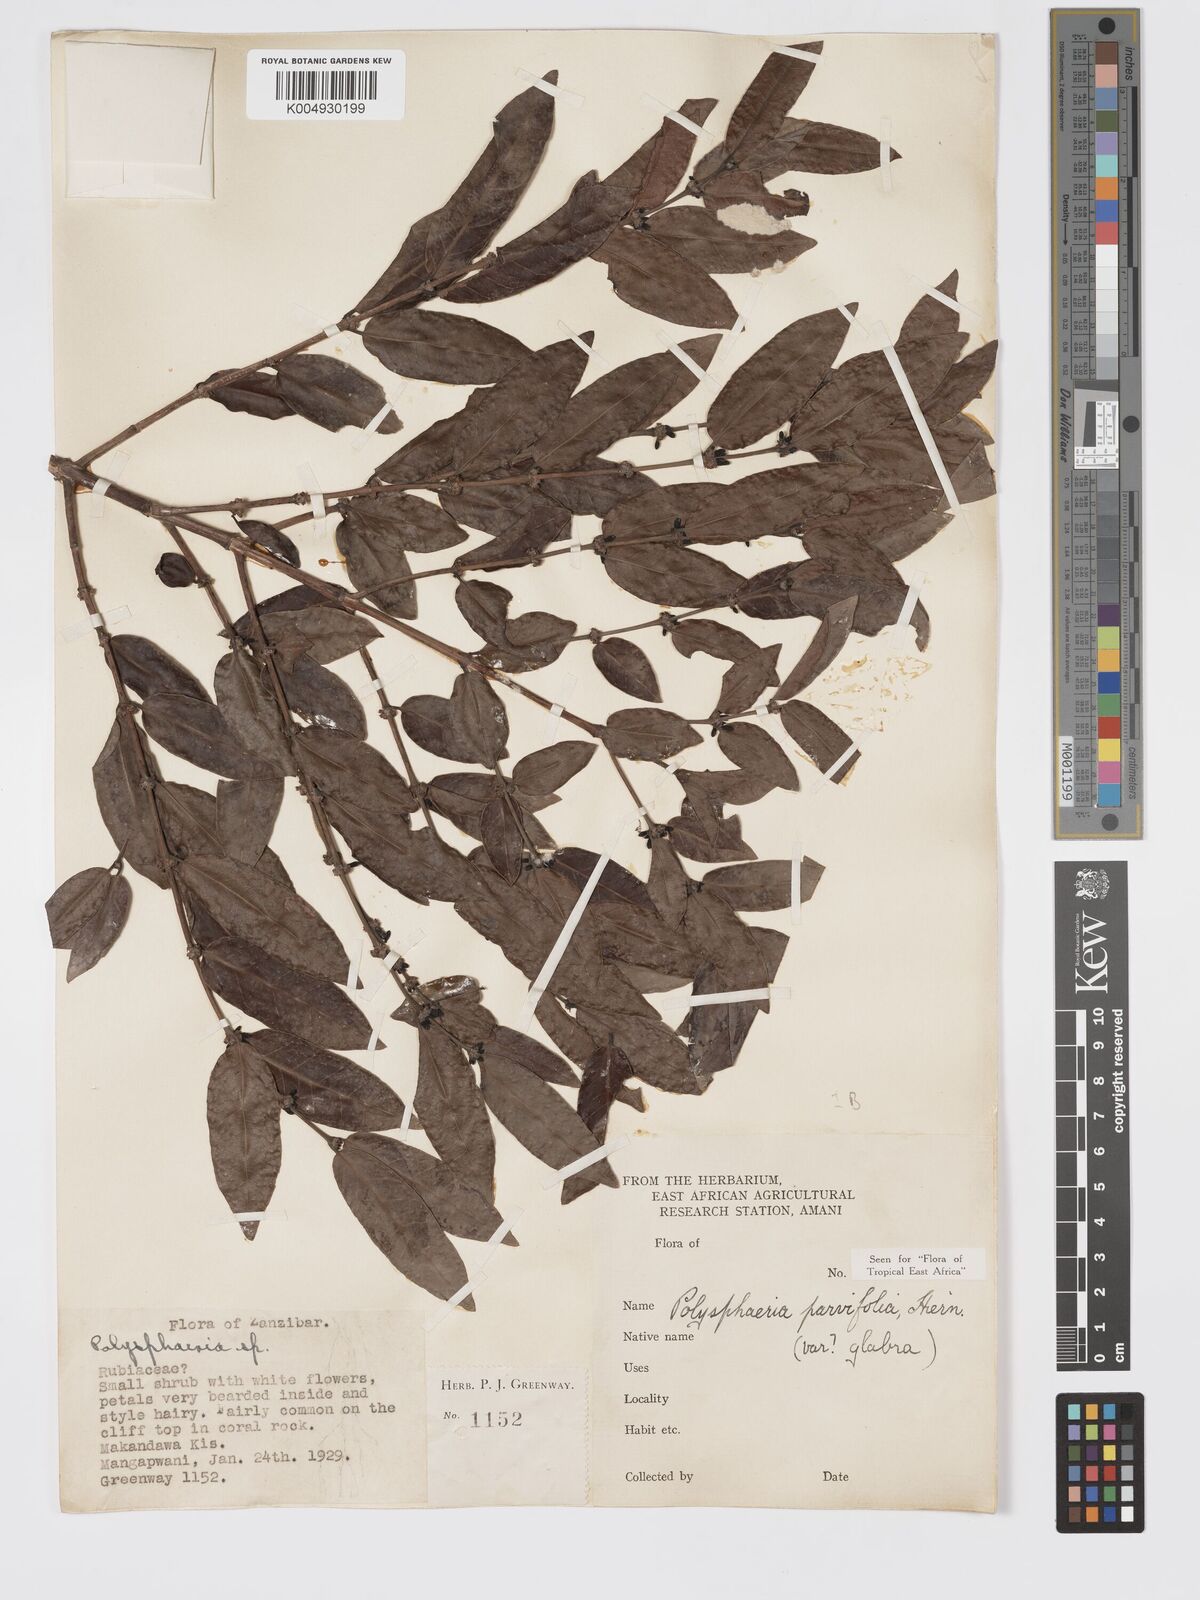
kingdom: Plantae
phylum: Tracheophyta
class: Magnoliopsida
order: Gentianales
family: Rubiaceae
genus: Polysphaeria
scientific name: Polysphaeria parvifolia
